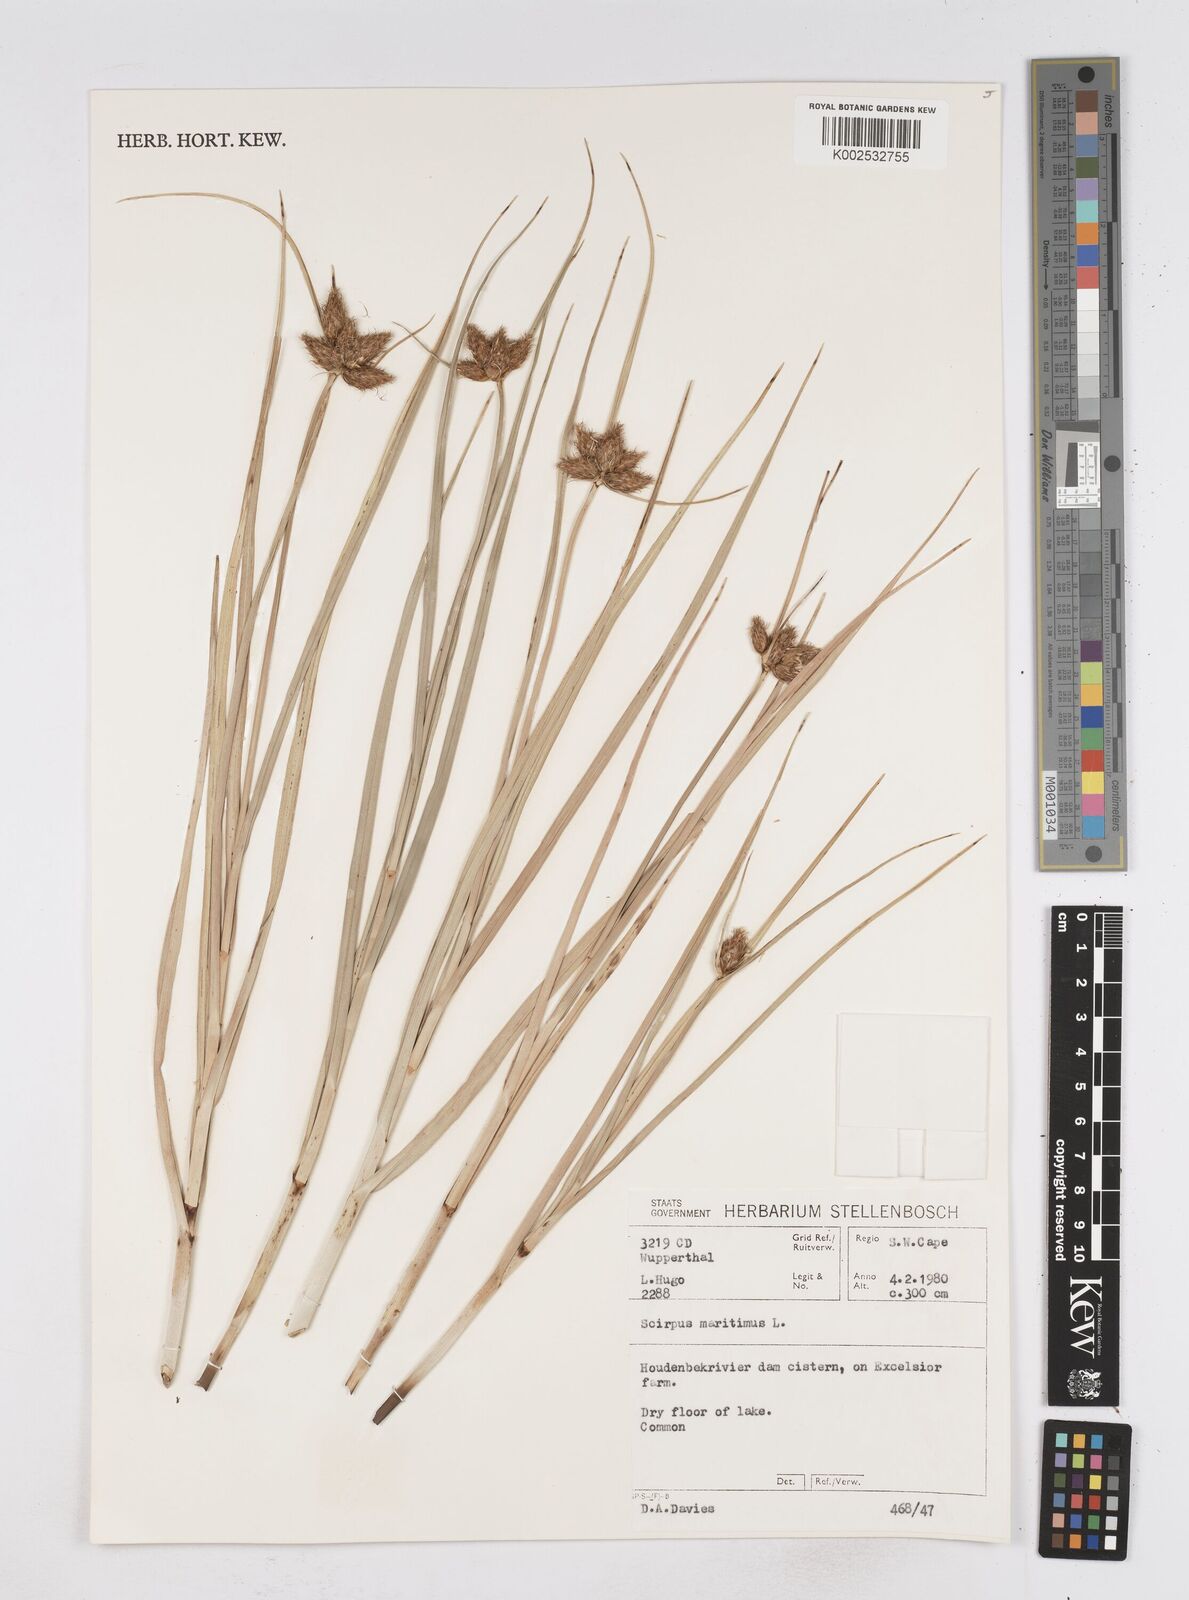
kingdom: Plantae
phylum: Tracheophyta
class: Liliopsida
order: Poales
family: Cyperaceae
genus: Bolboschoenus
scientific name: Bolboschoenus maritimus
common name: Sea club-rush
